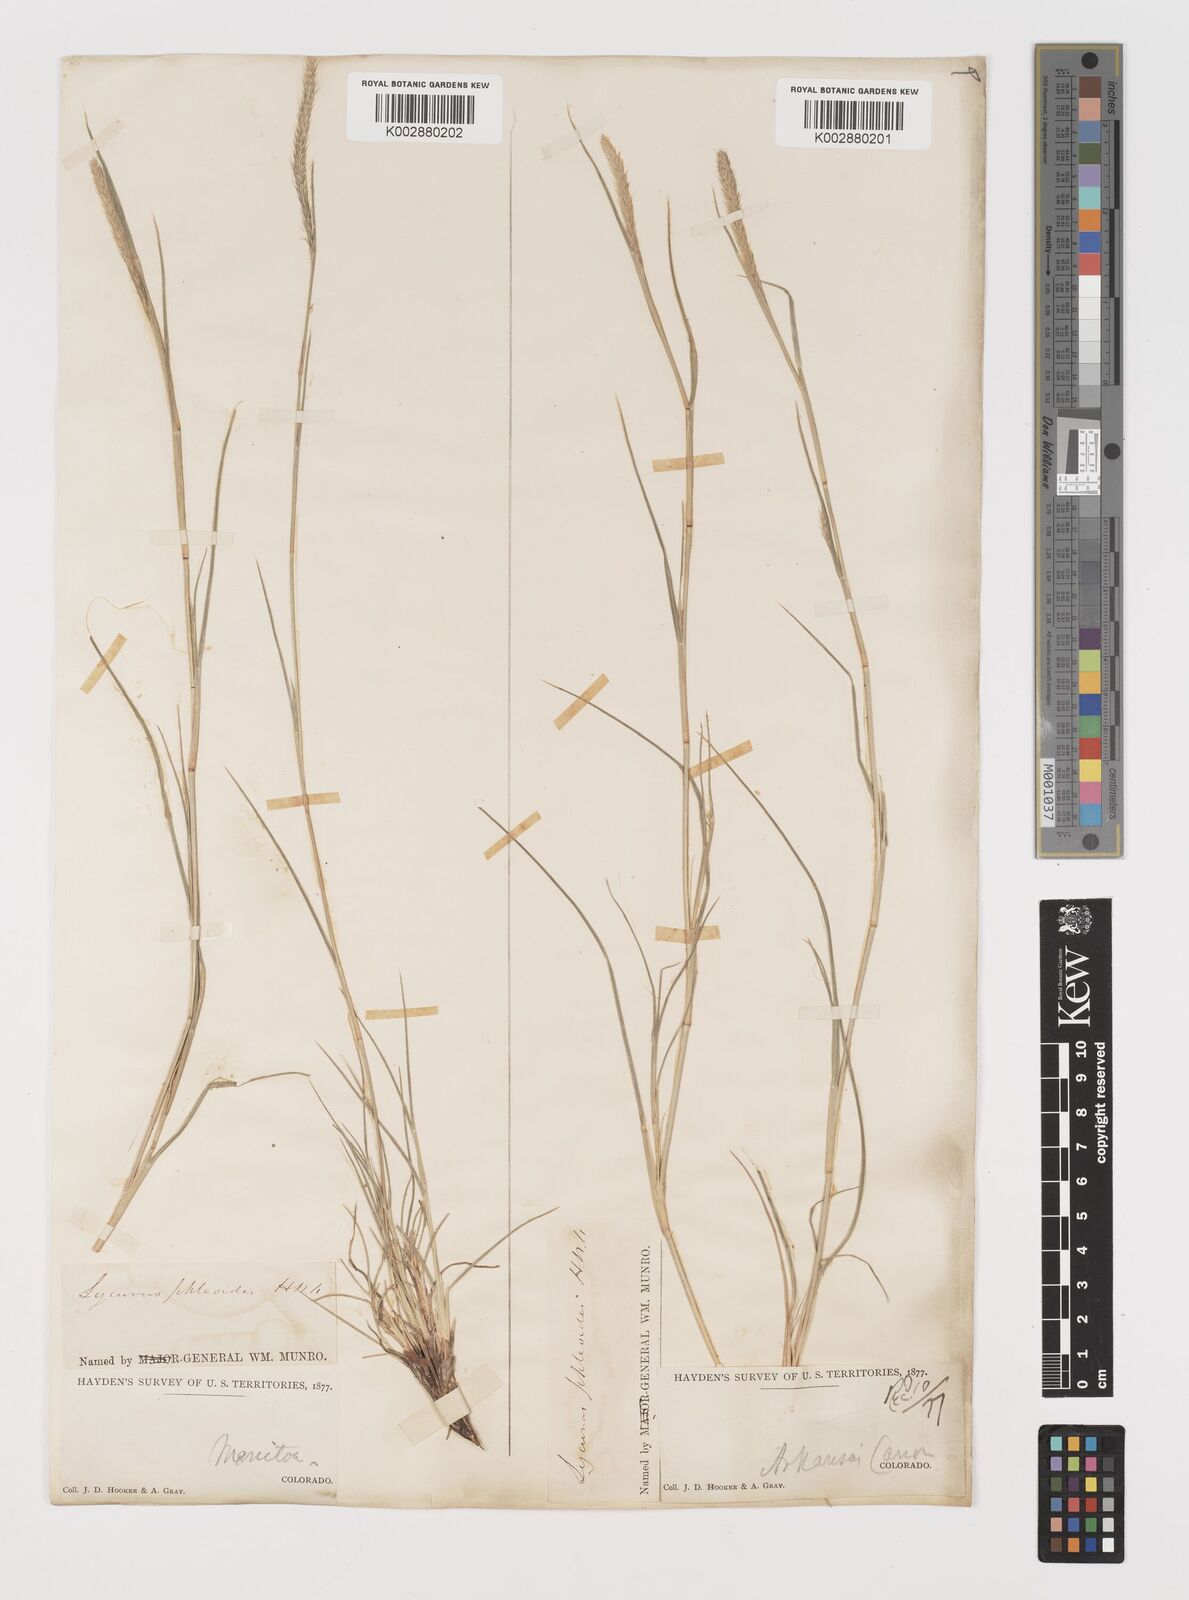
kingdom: Plantae
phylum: Tracheophyta
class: Liliopsida
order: Poales
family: Poaceae
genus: Muhlenbergia
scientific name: Muhlenbergia alopecuroides
